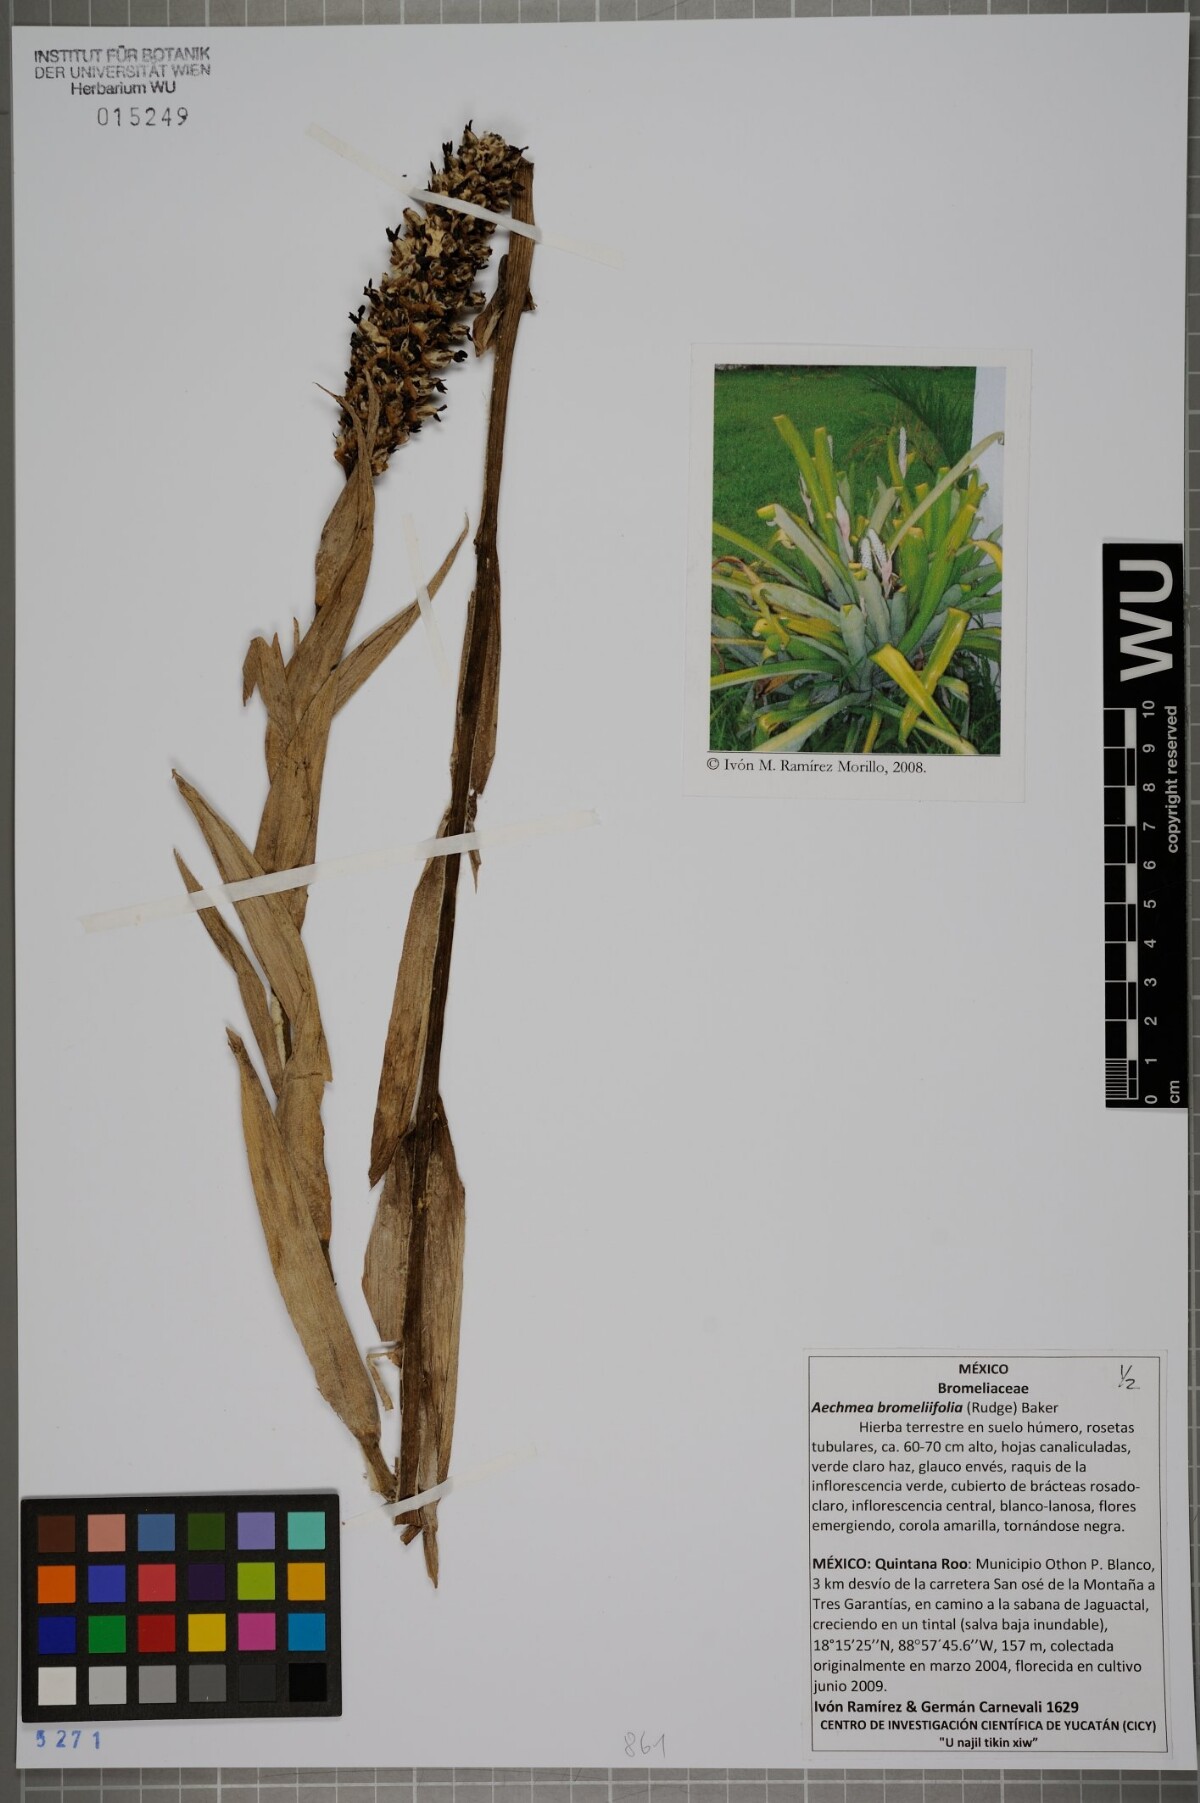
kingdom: Plantae
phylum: Tracheophyta
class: Liliopsida
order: Poales
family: Bromeliaceae
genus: Aechmea
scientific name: Aechmea bromeliifolia
